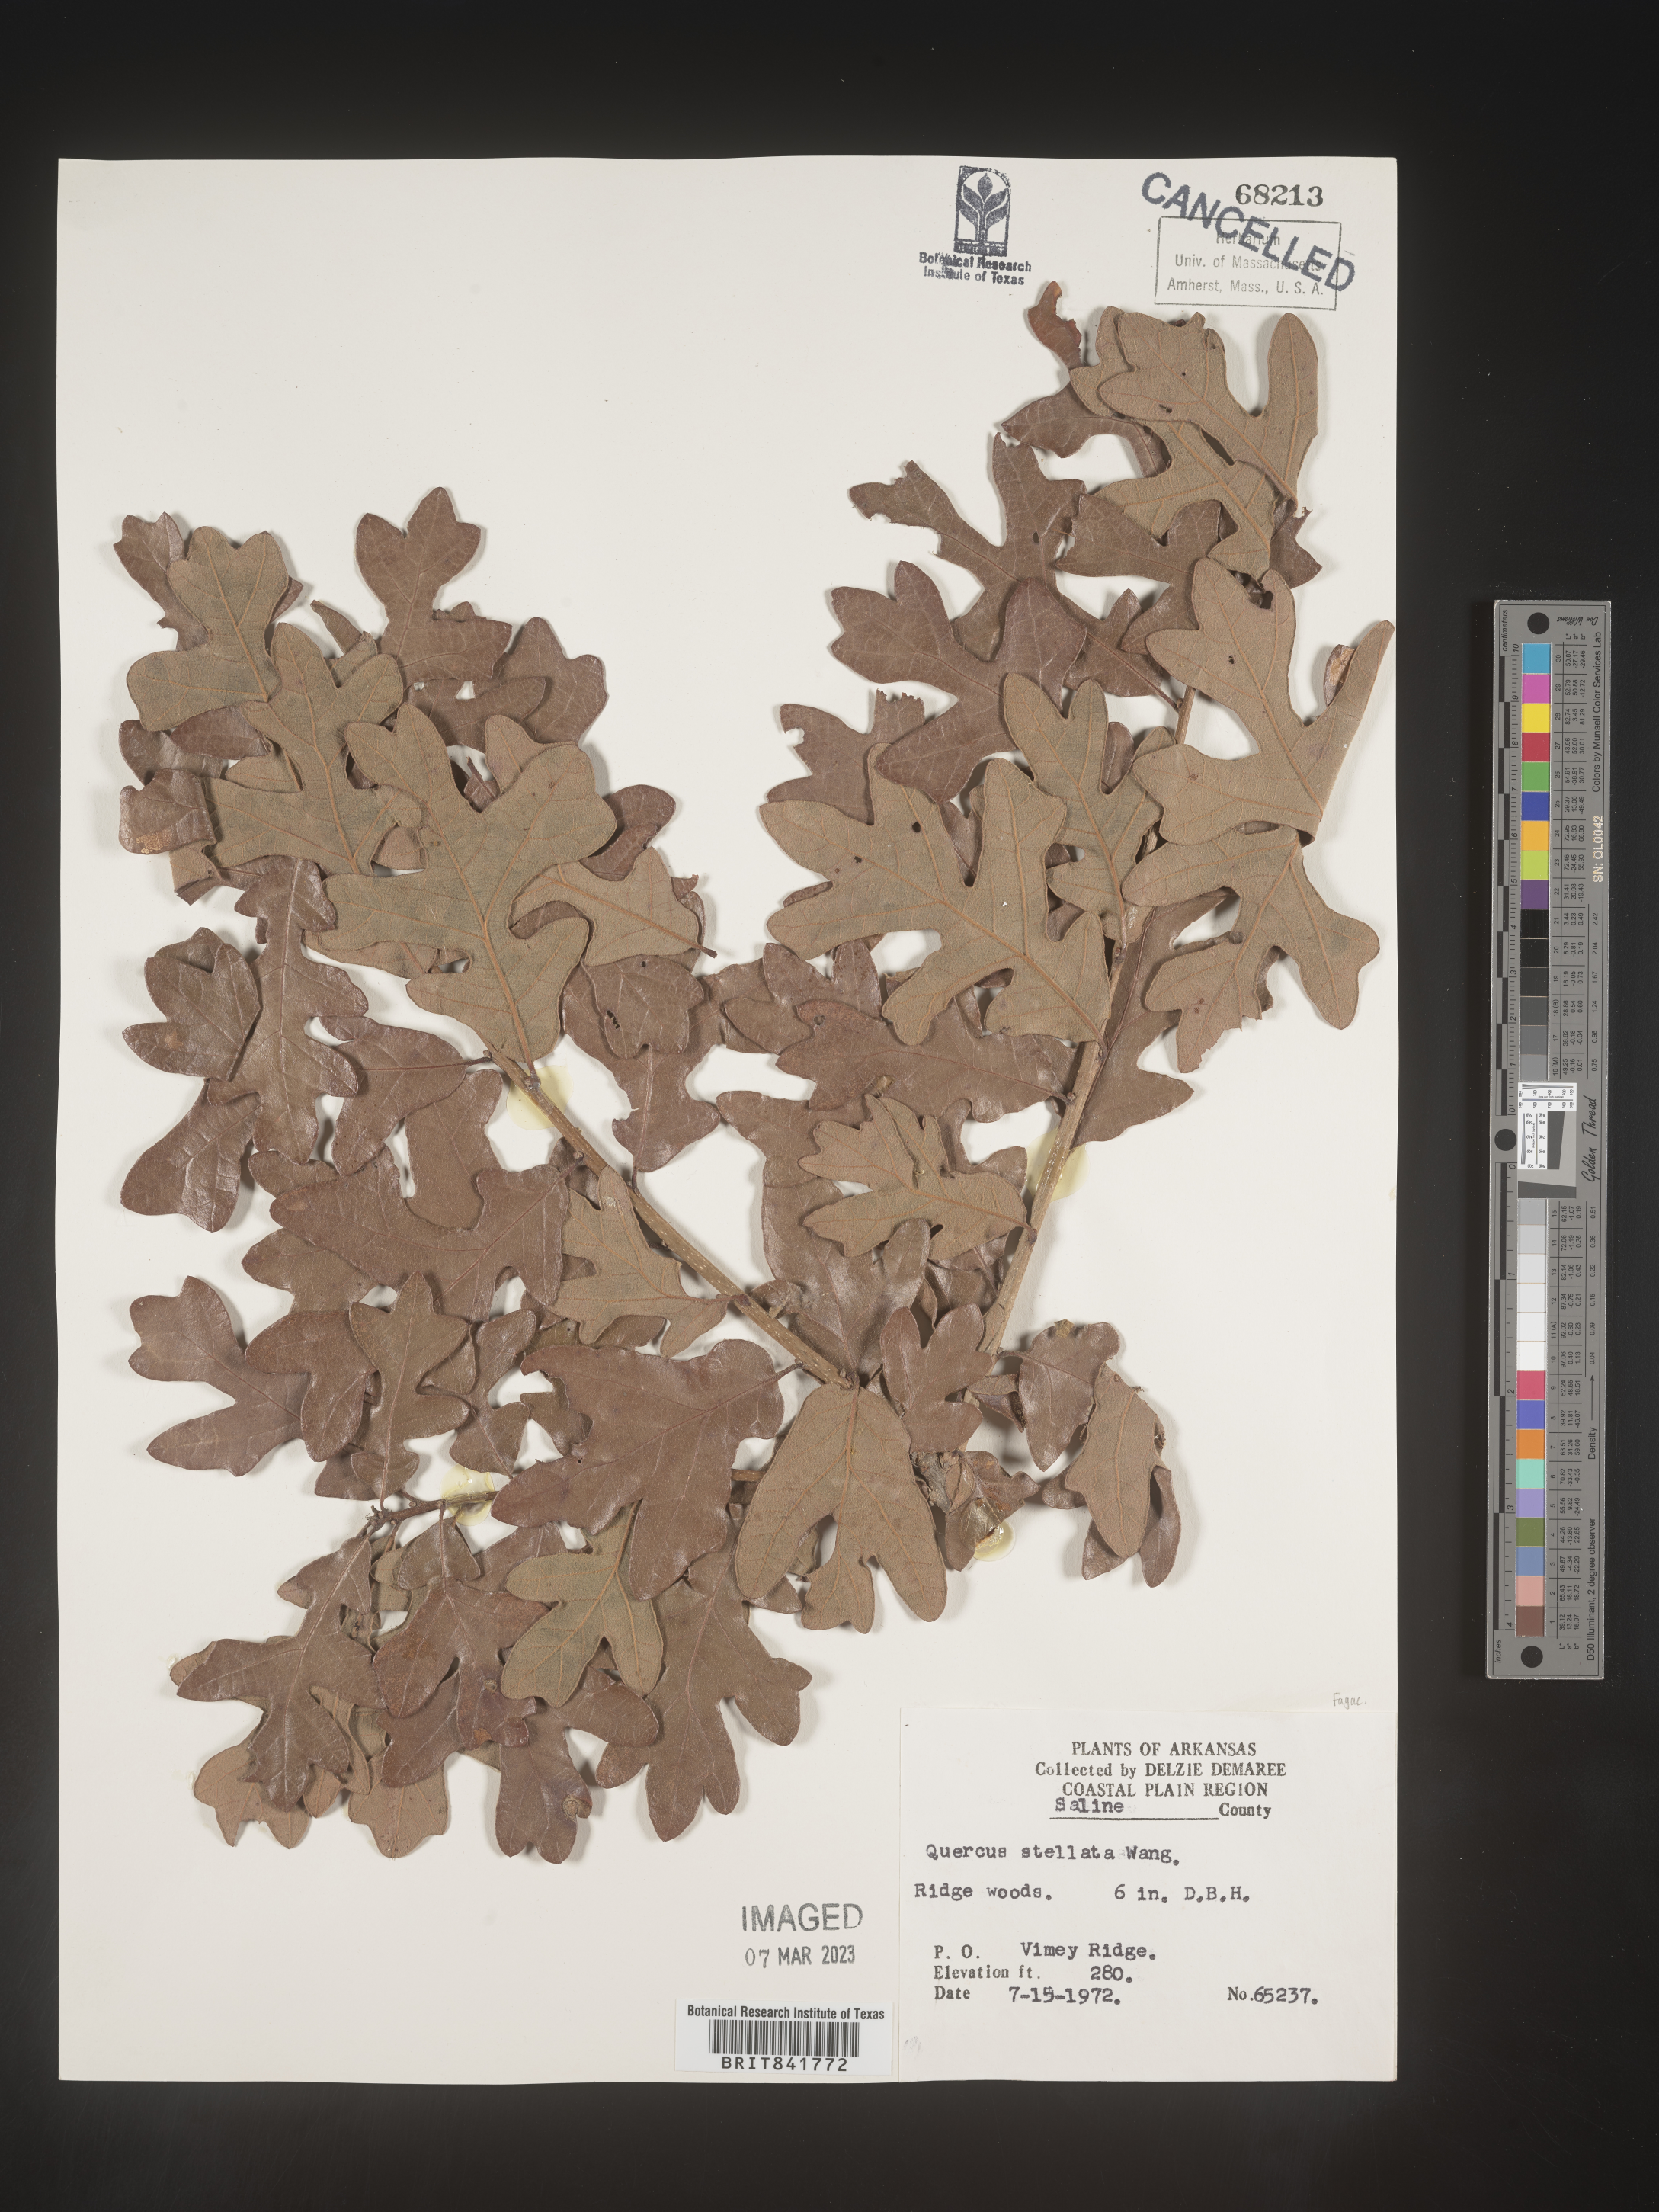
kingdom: Plantae
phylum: Tracheophyta
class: Magnoliopsida
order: Fagales
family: Fagaceae
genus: Quercus
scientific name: Quercus stellata
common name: Post oak
